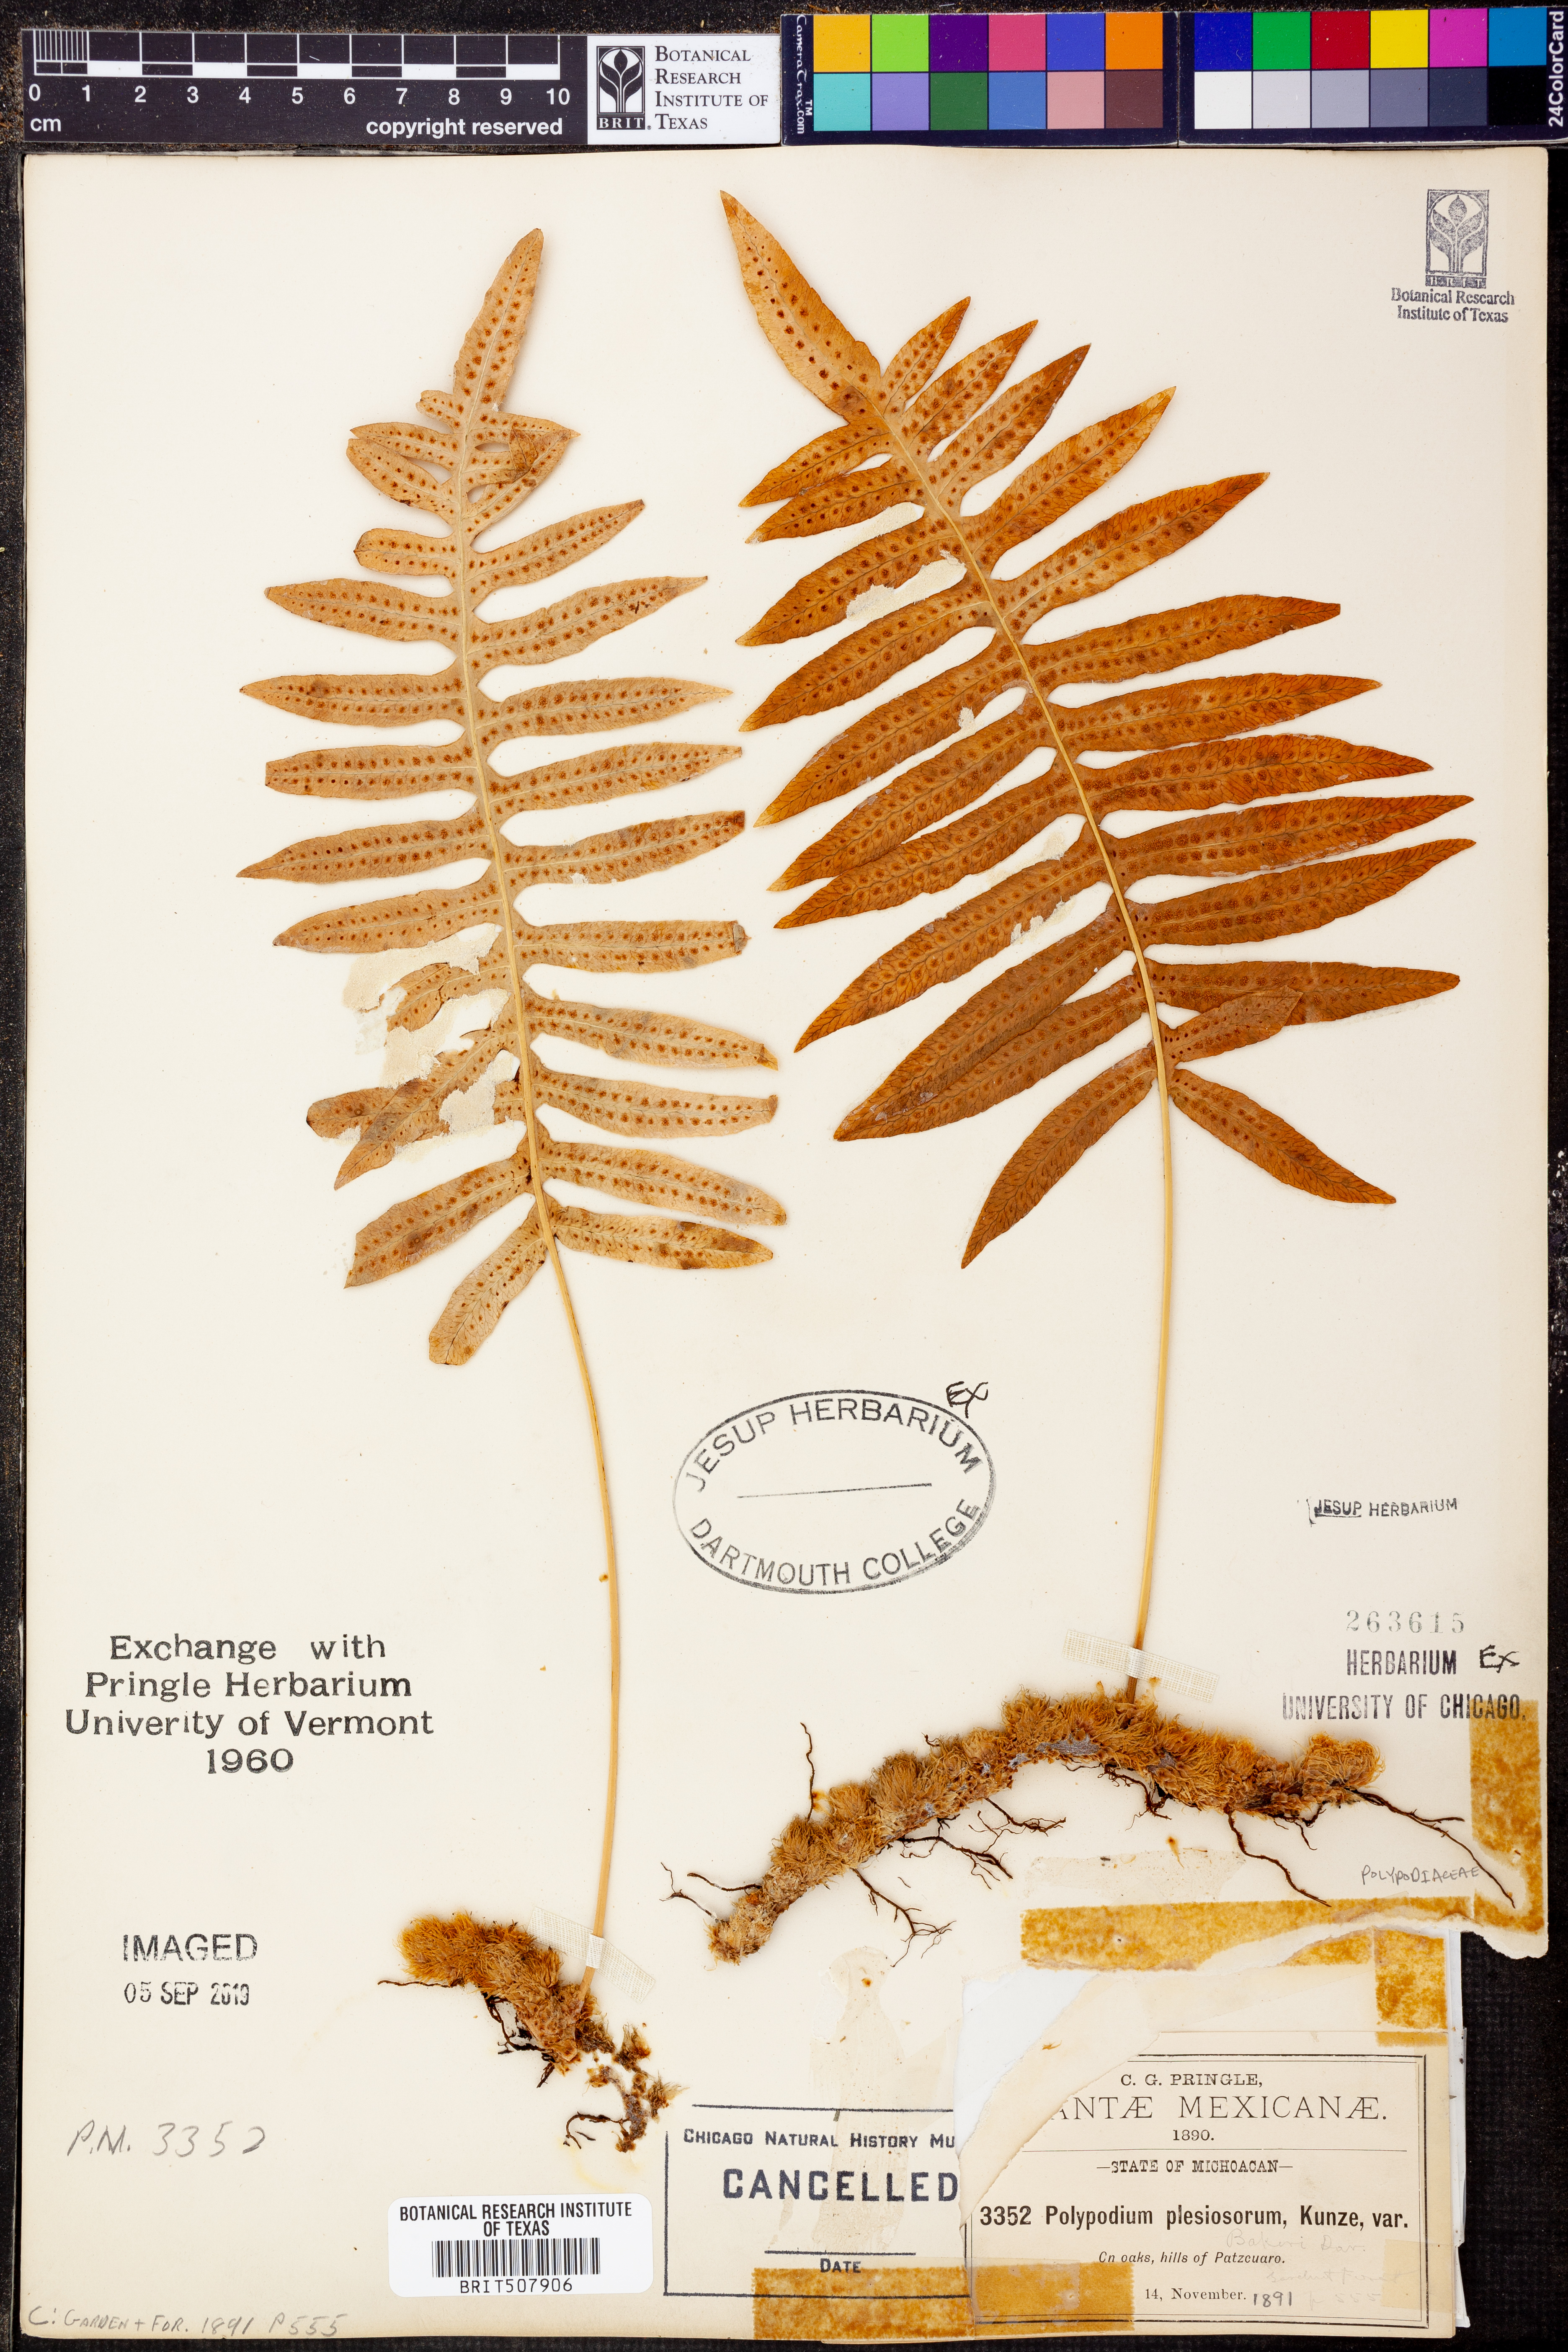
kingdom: Plantae
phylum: Tracheophyta
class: Polypodiopsida
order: Polypodiales
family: Polypodiaceae
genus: Polypodium
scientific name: Polypodium plesiosorum
